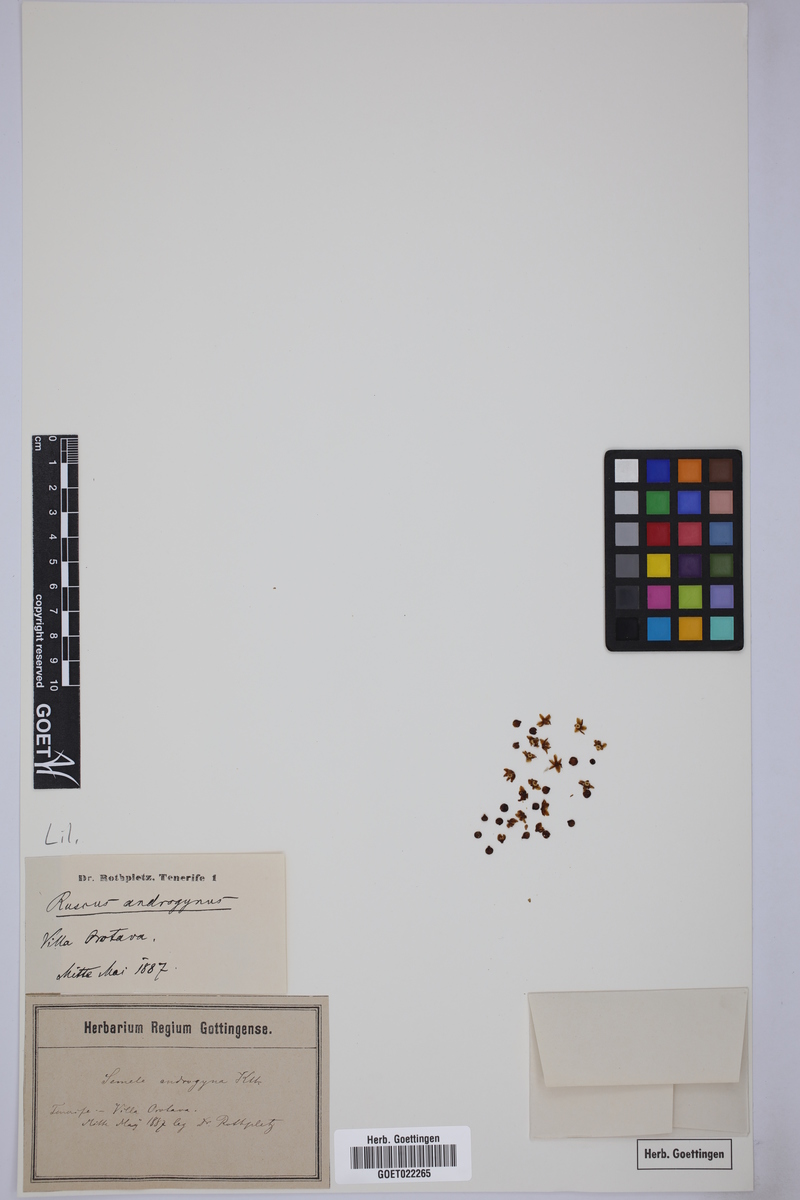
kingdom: Plantae
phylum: Tracheophyta
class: Liliopsida
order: Asparagales
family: Asparagaceae
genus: Semele
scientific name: Semele androgyna
